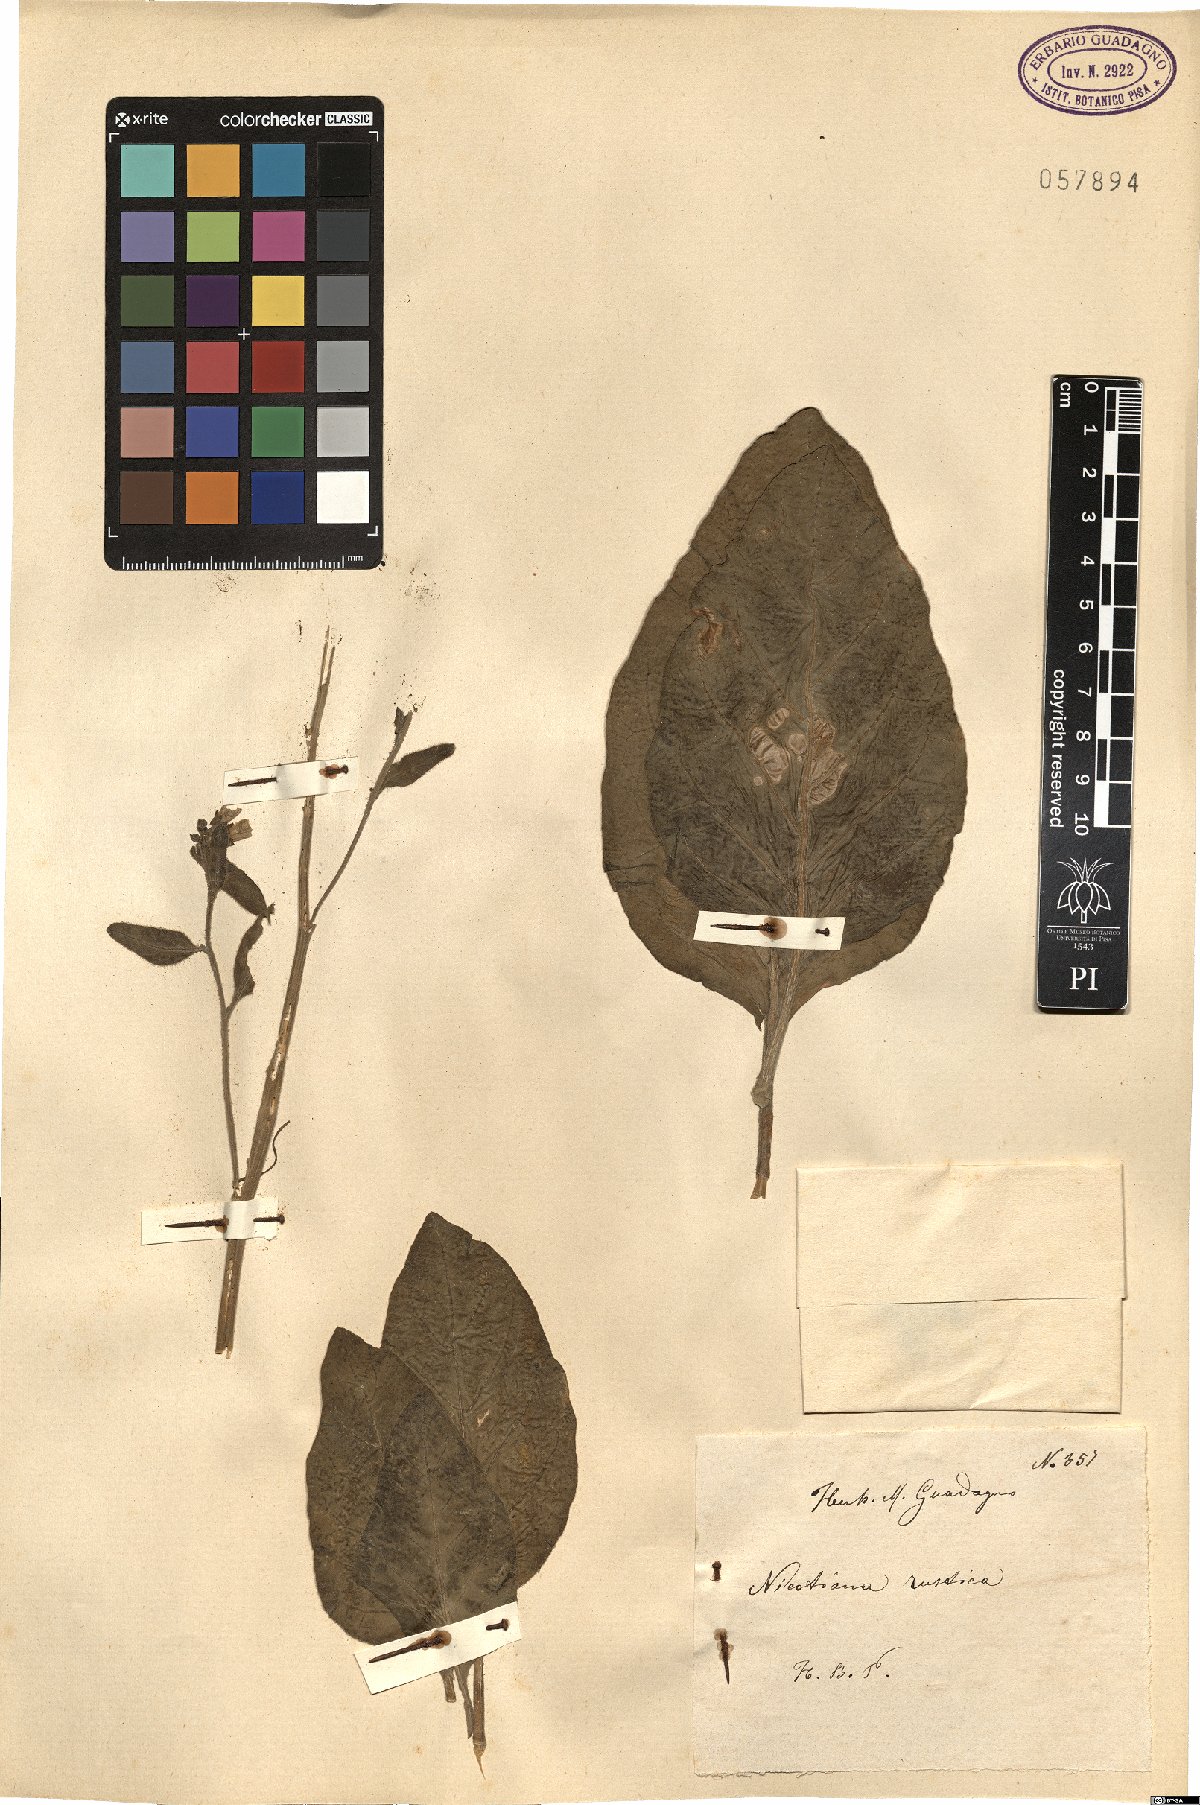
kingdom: Plantae
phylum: Tracheophyta
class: Magnoliopsida
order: Solanales
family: Solanaceae
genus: Nicotiana
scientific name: Nicotiana rustica
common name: Wild tobacco
